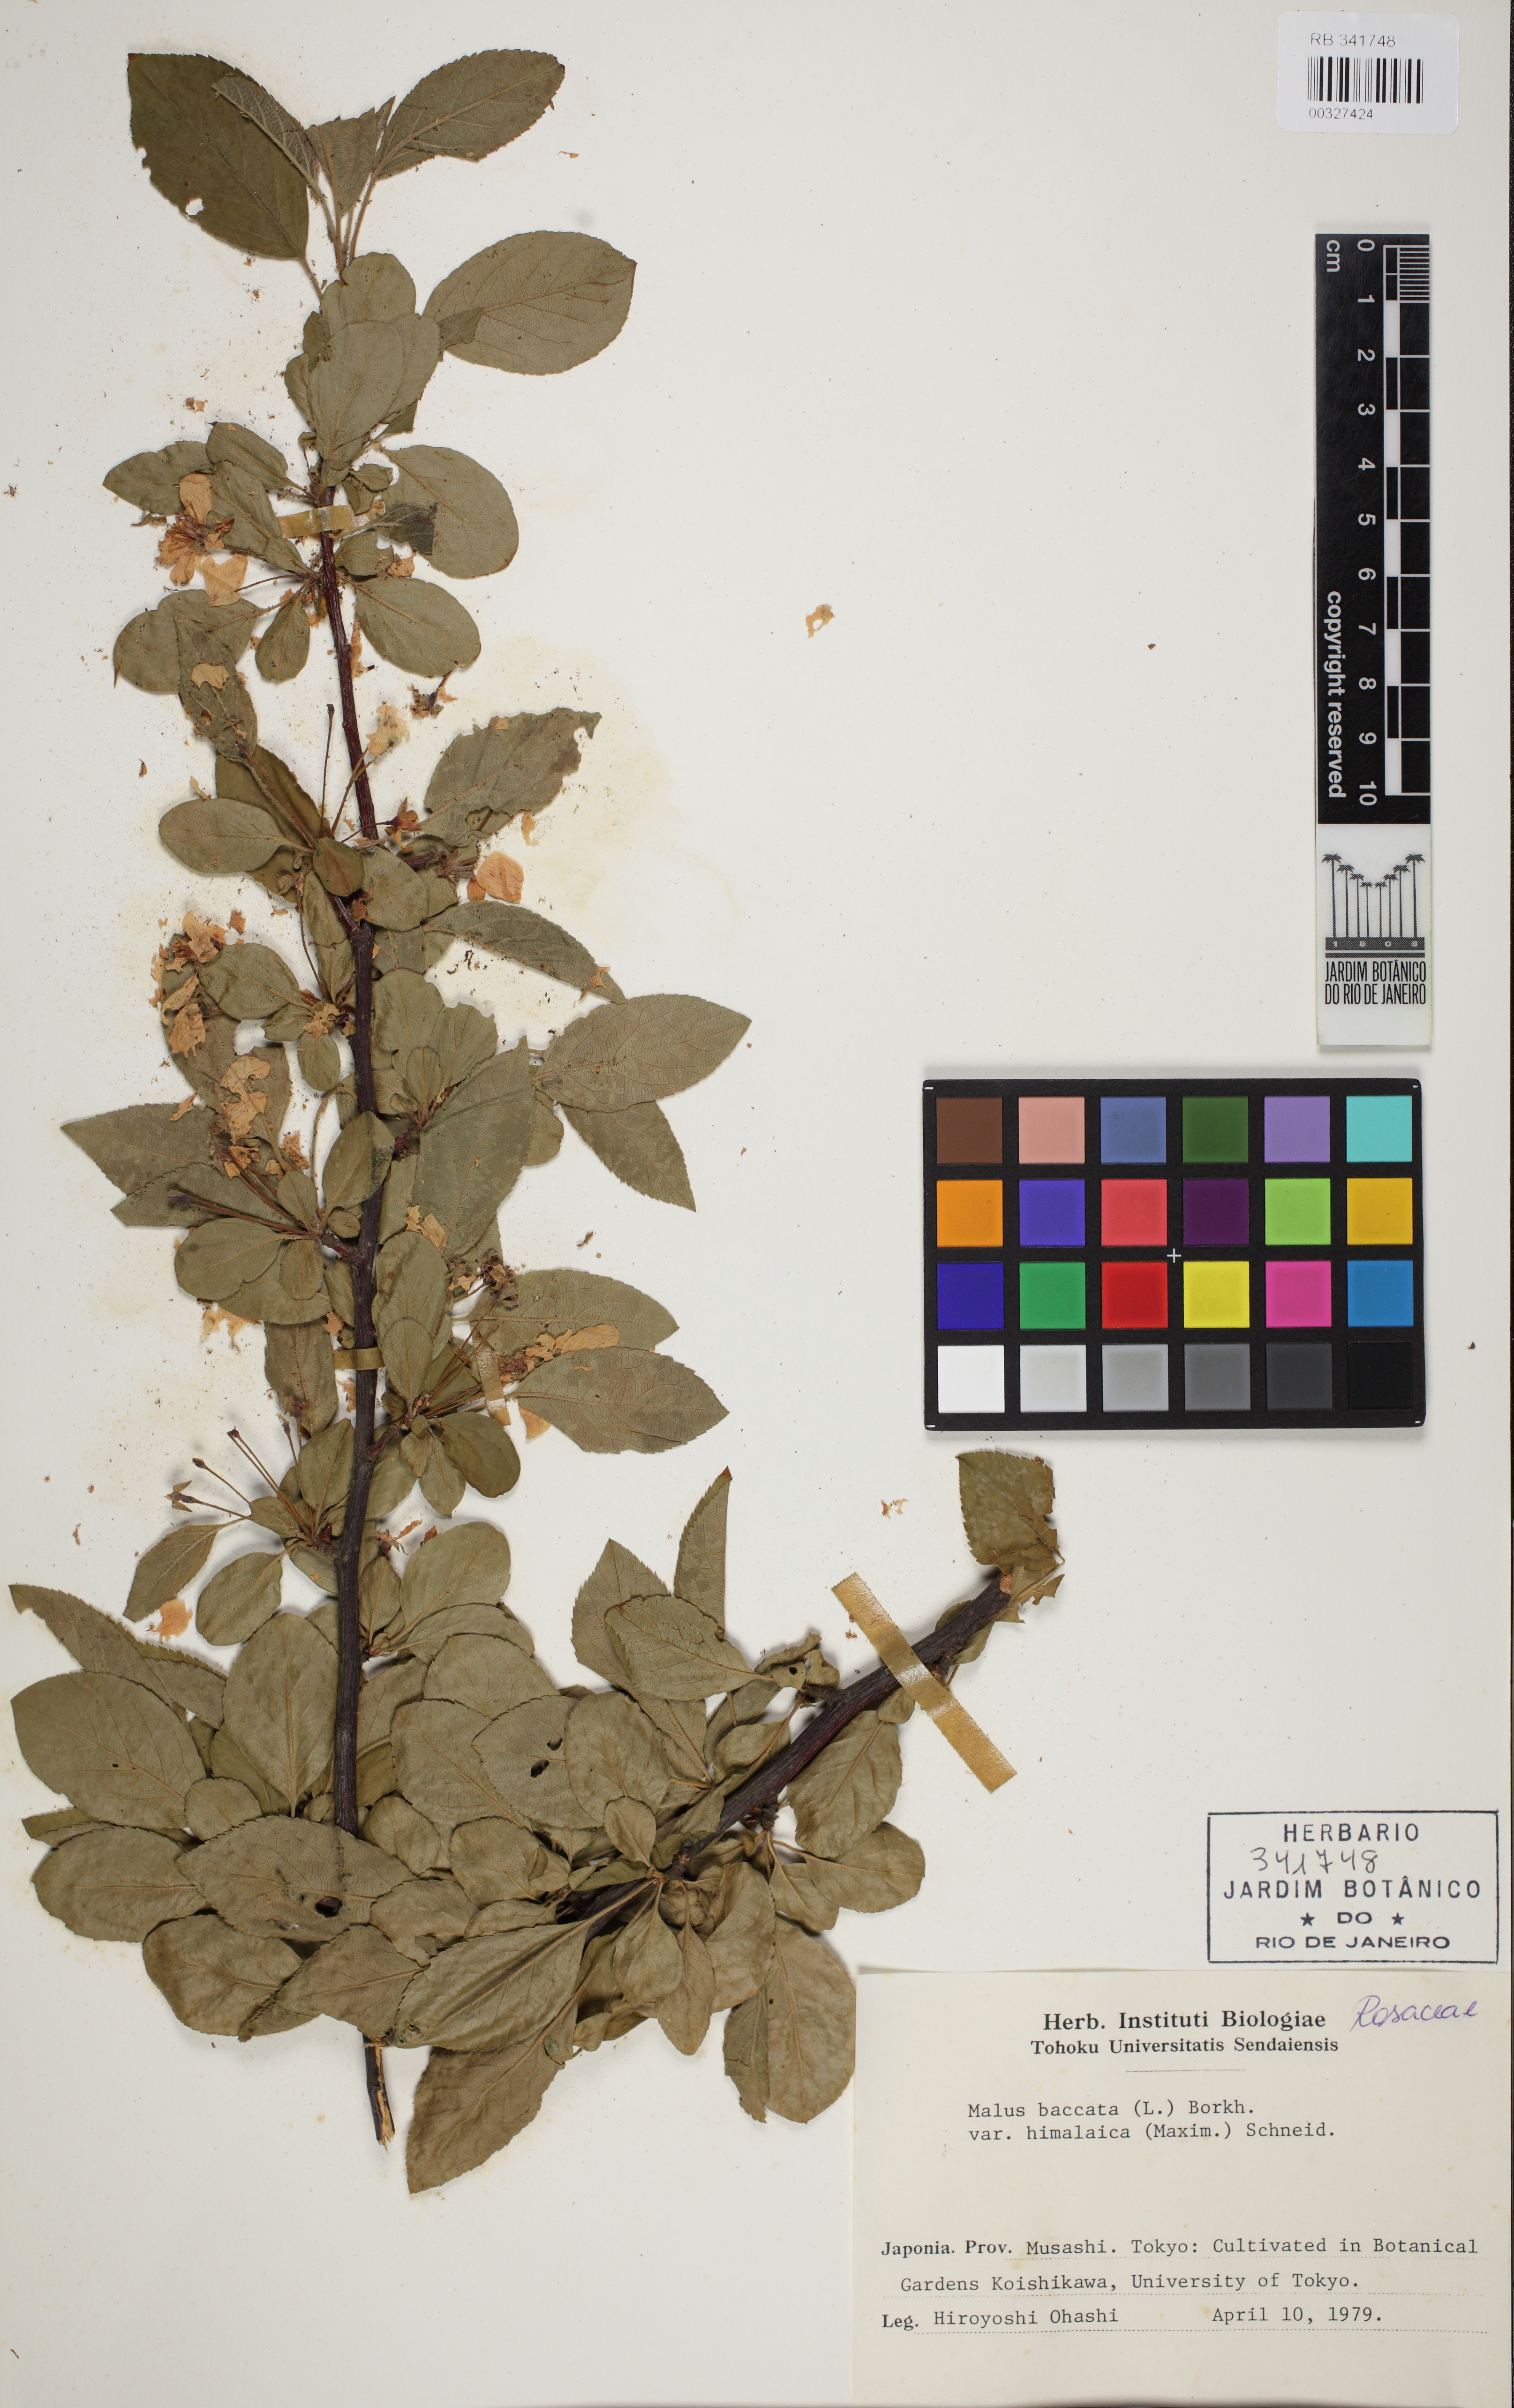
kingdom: Plantae
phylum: Tracheophyta
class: Magnoliopsida
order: Rosales
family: Rosaceae
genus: Malus
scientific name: Malus rockii
